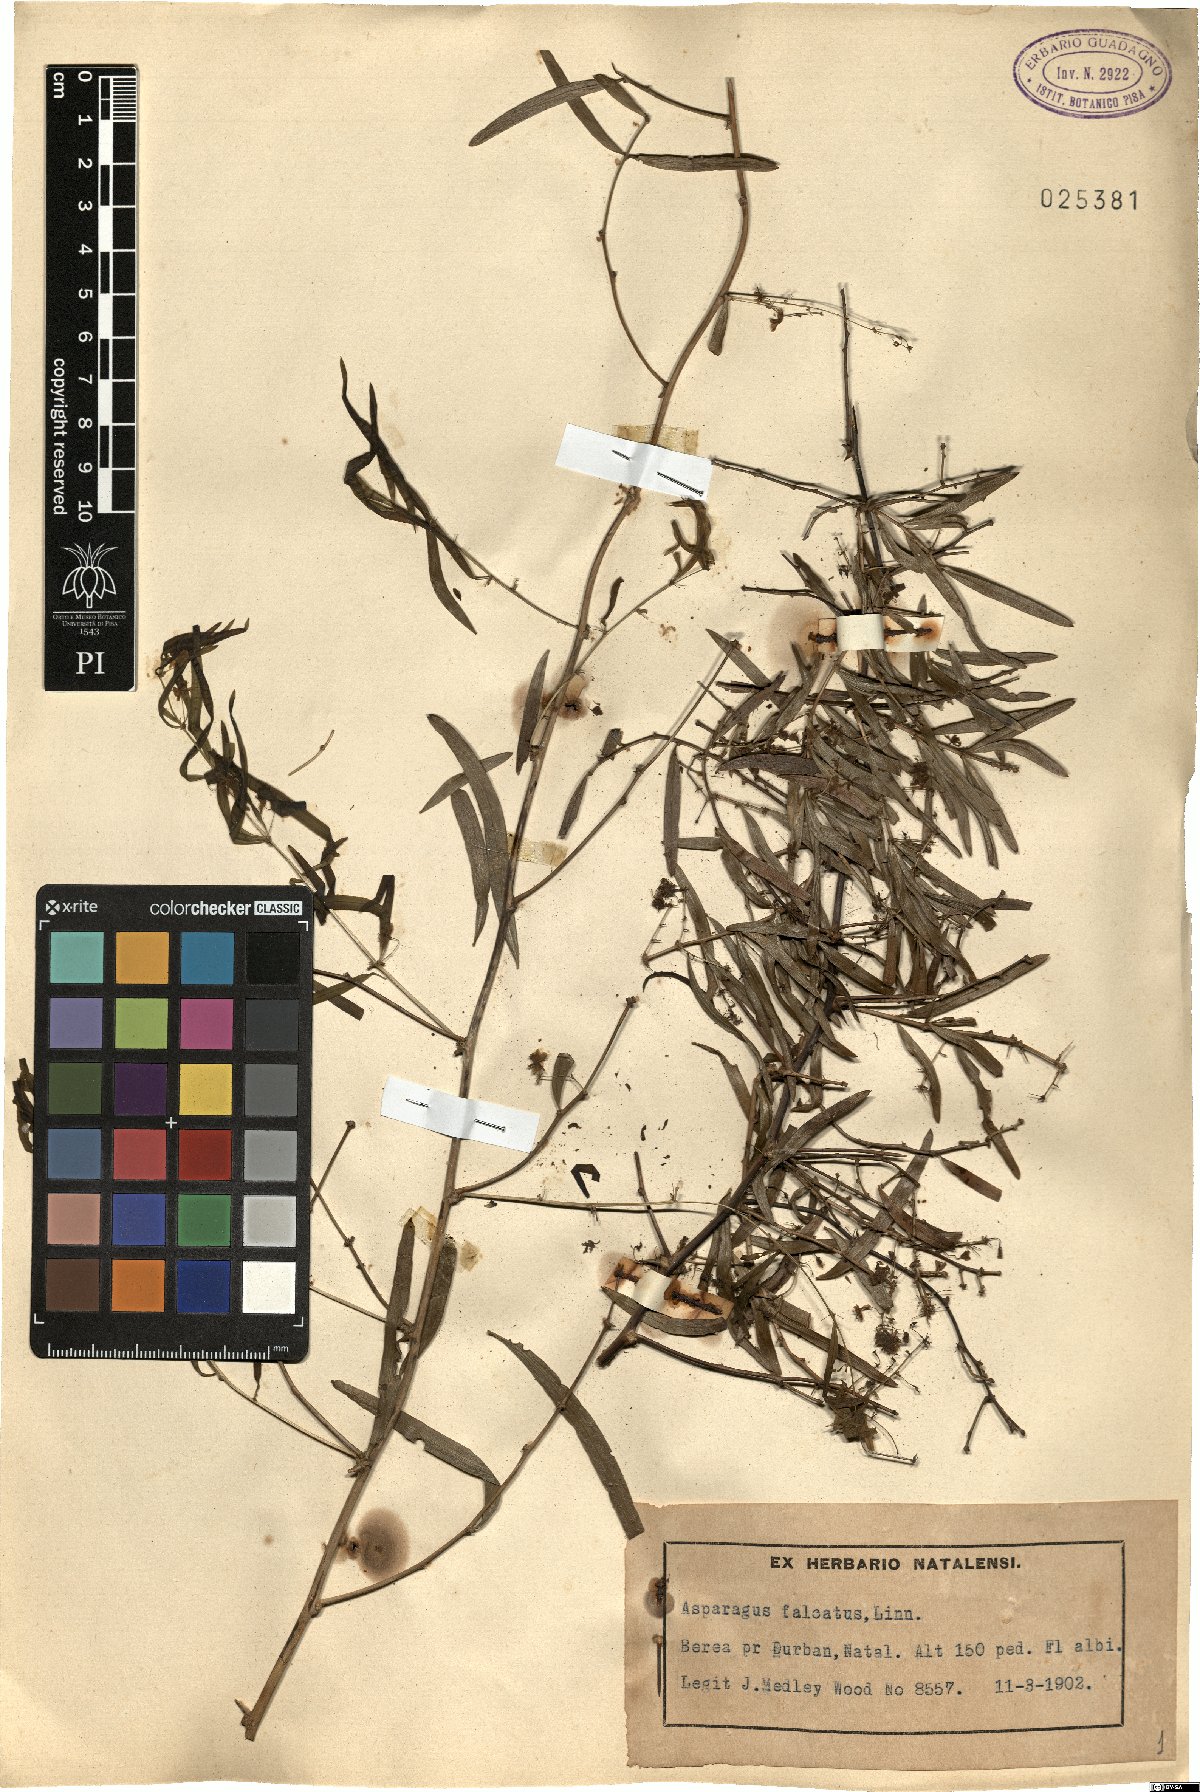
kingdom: Plantae
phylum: Tracheophyta
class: Liliopsida
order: Asparagales
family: Asparagaceae
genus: Asparagus
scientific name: Asparagus falcatus
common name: Asparagus
